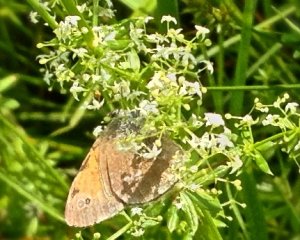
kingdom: Animalia
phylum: Arthropoda
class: Insecta
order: Lepidoptera
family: Nymphalidae
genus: Coenonympha
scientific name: Coenonympha tullia
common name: Large Heath
